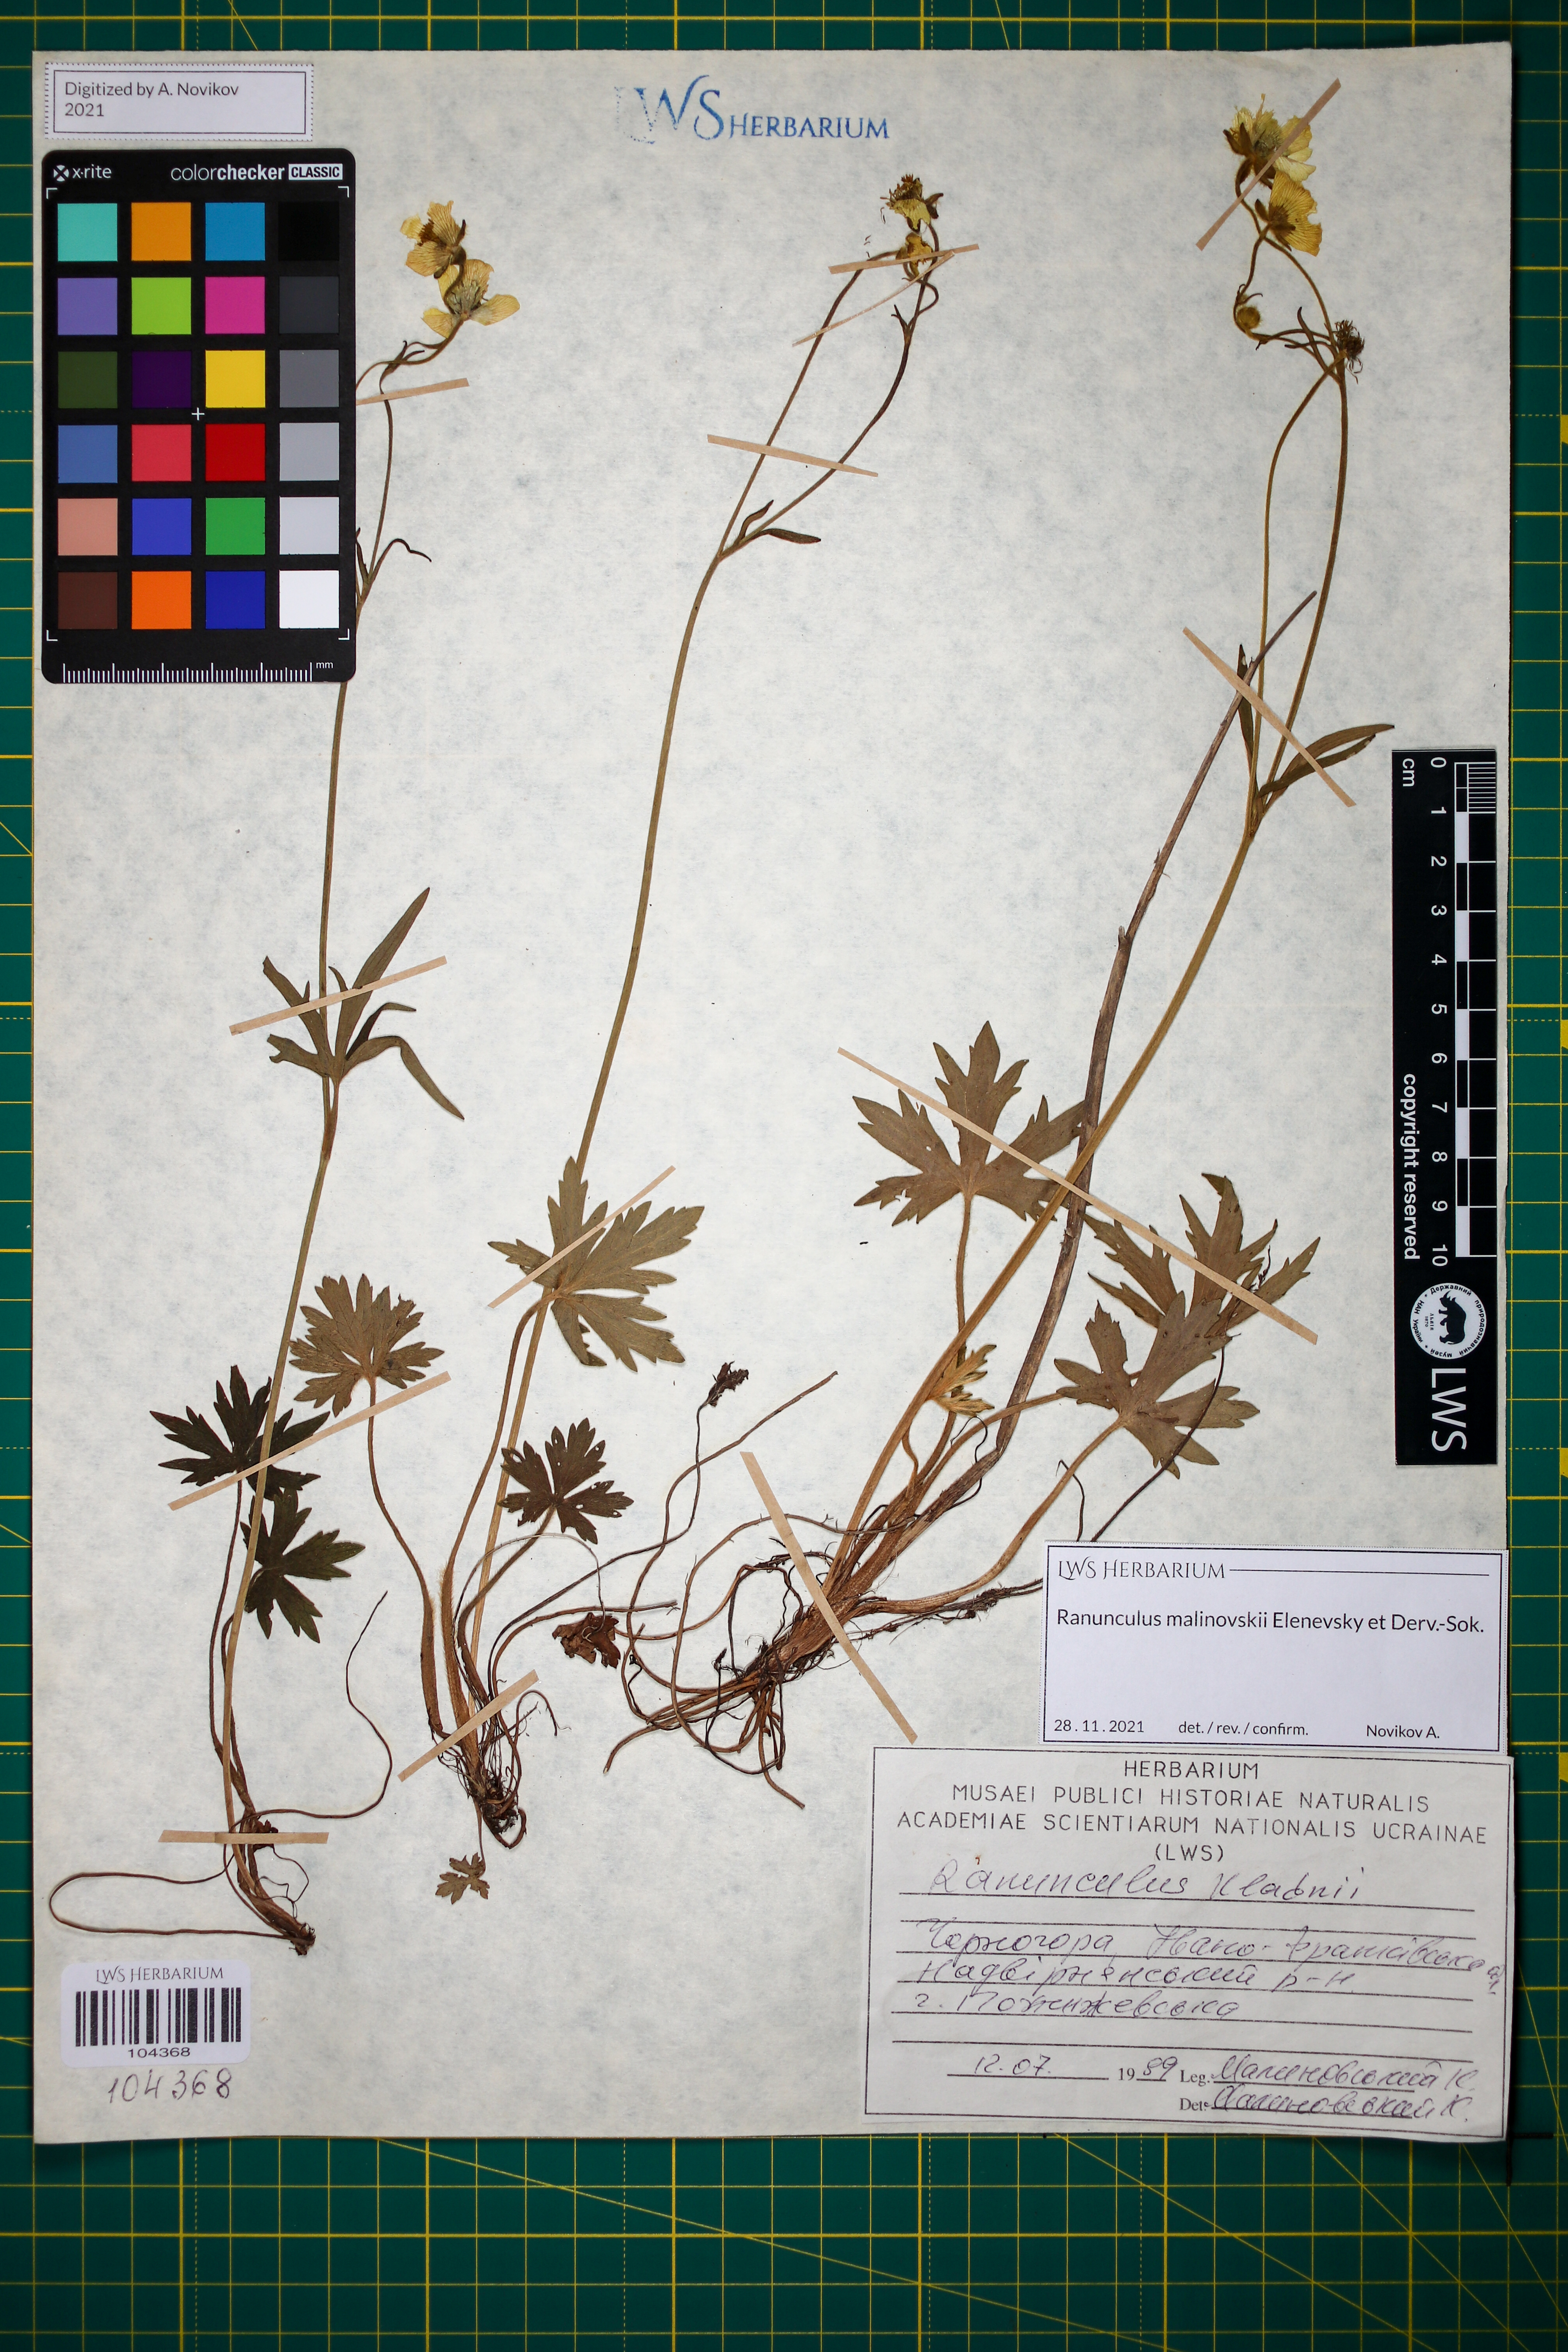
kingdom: Plantae
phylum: Tracheophyta
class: Magnoliopsida
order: Ranunculales
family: Ranunculaceae
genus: Ranunculus
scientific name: Ranunculus malinovskii
